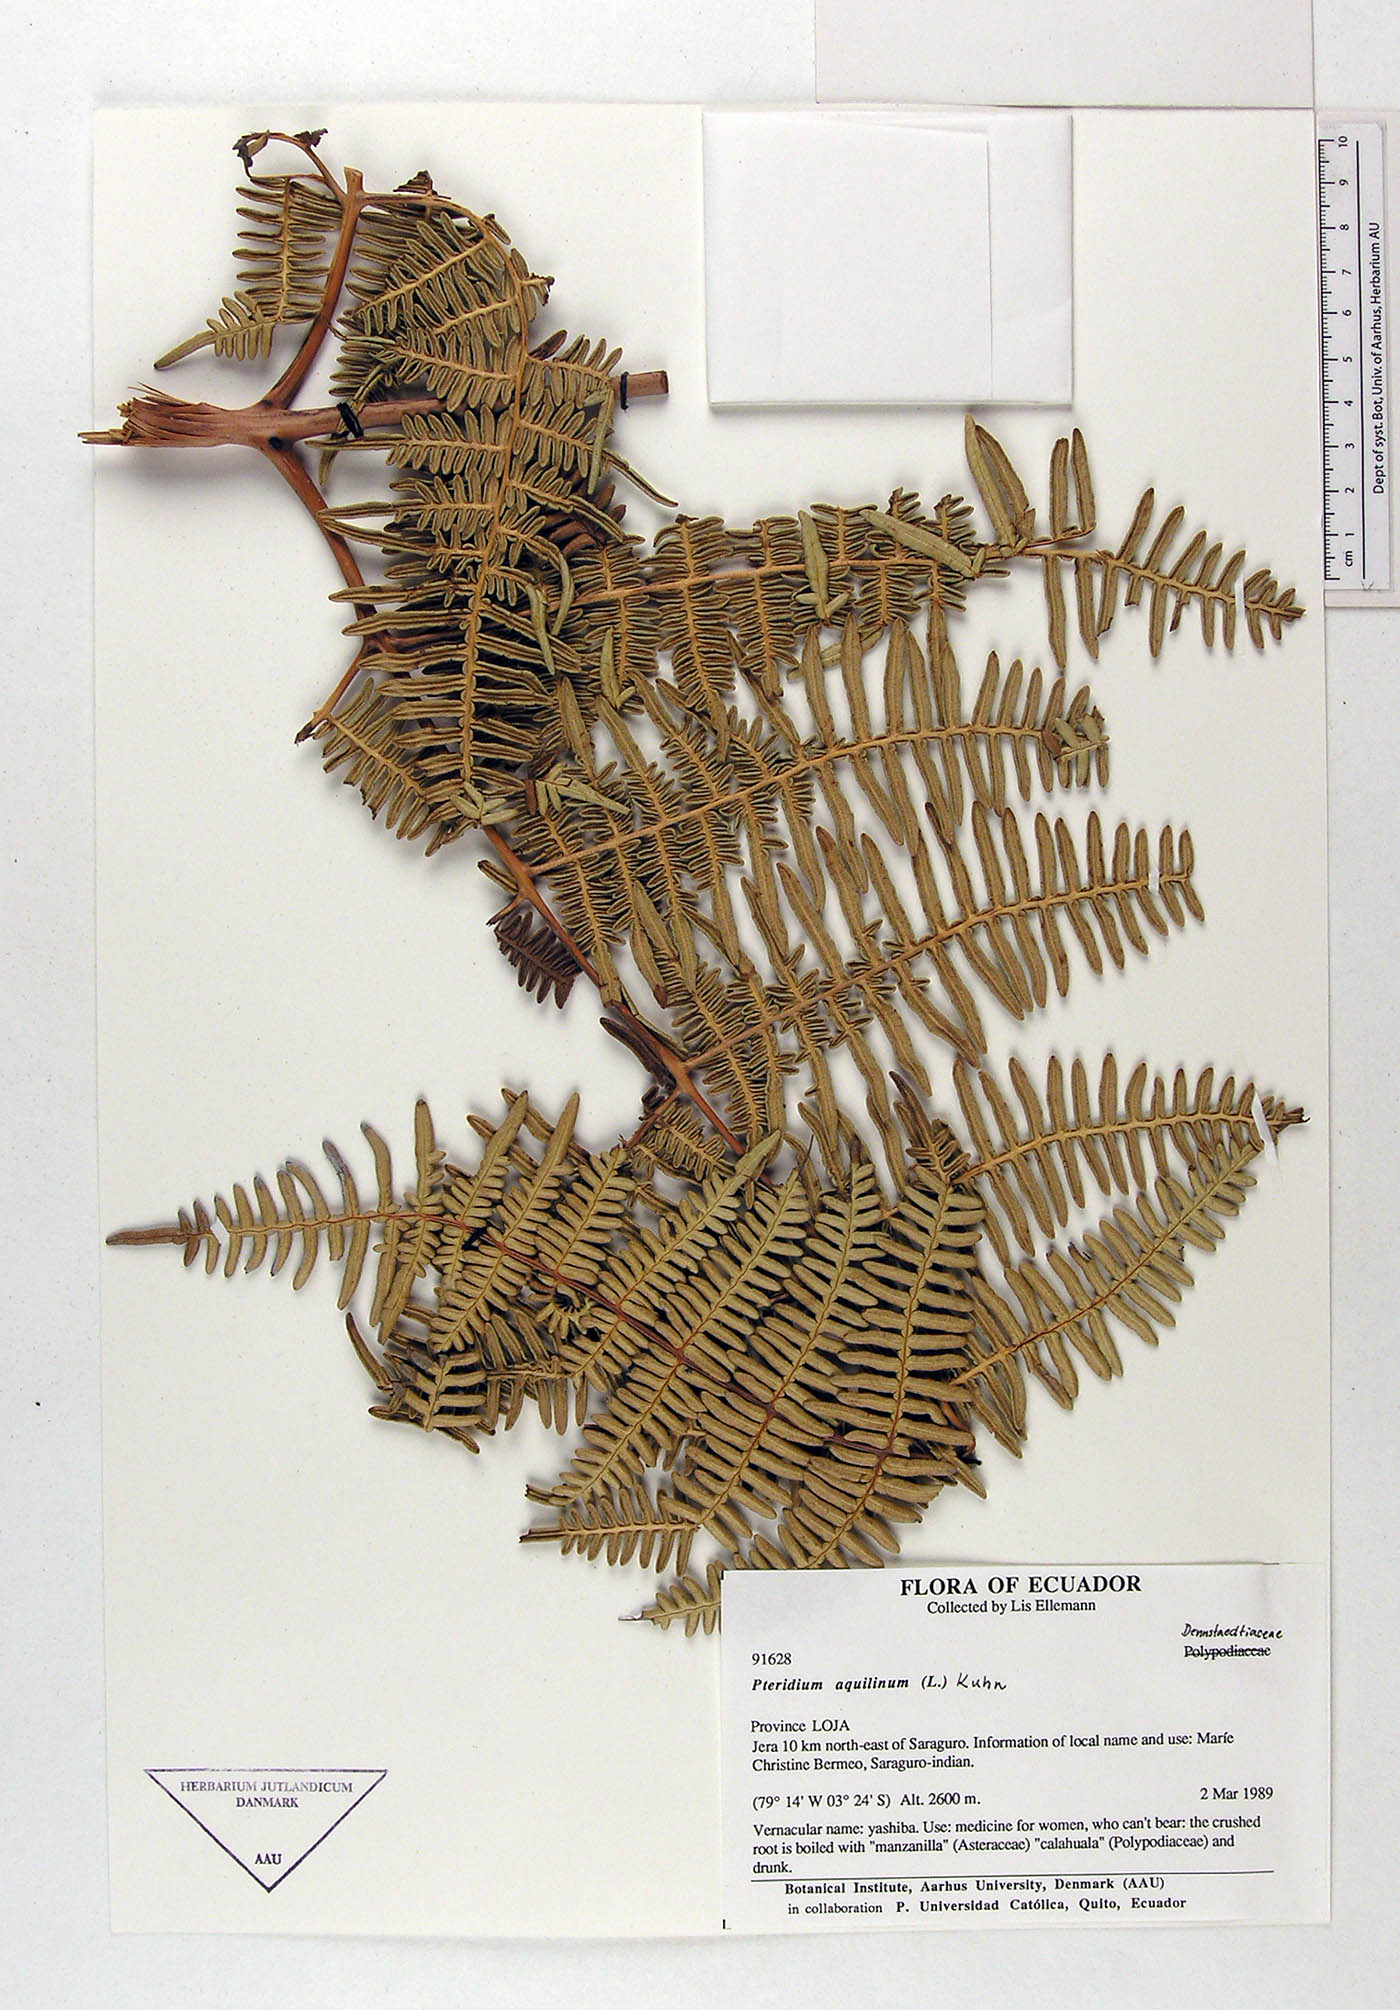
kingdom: Plantae
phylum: Tracheophyta
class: Polypodiopsida
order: Polypodiales
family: Dennstaedtiaceae
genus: Pteridium
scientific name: Pteridium aquilinum
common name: Bracken
